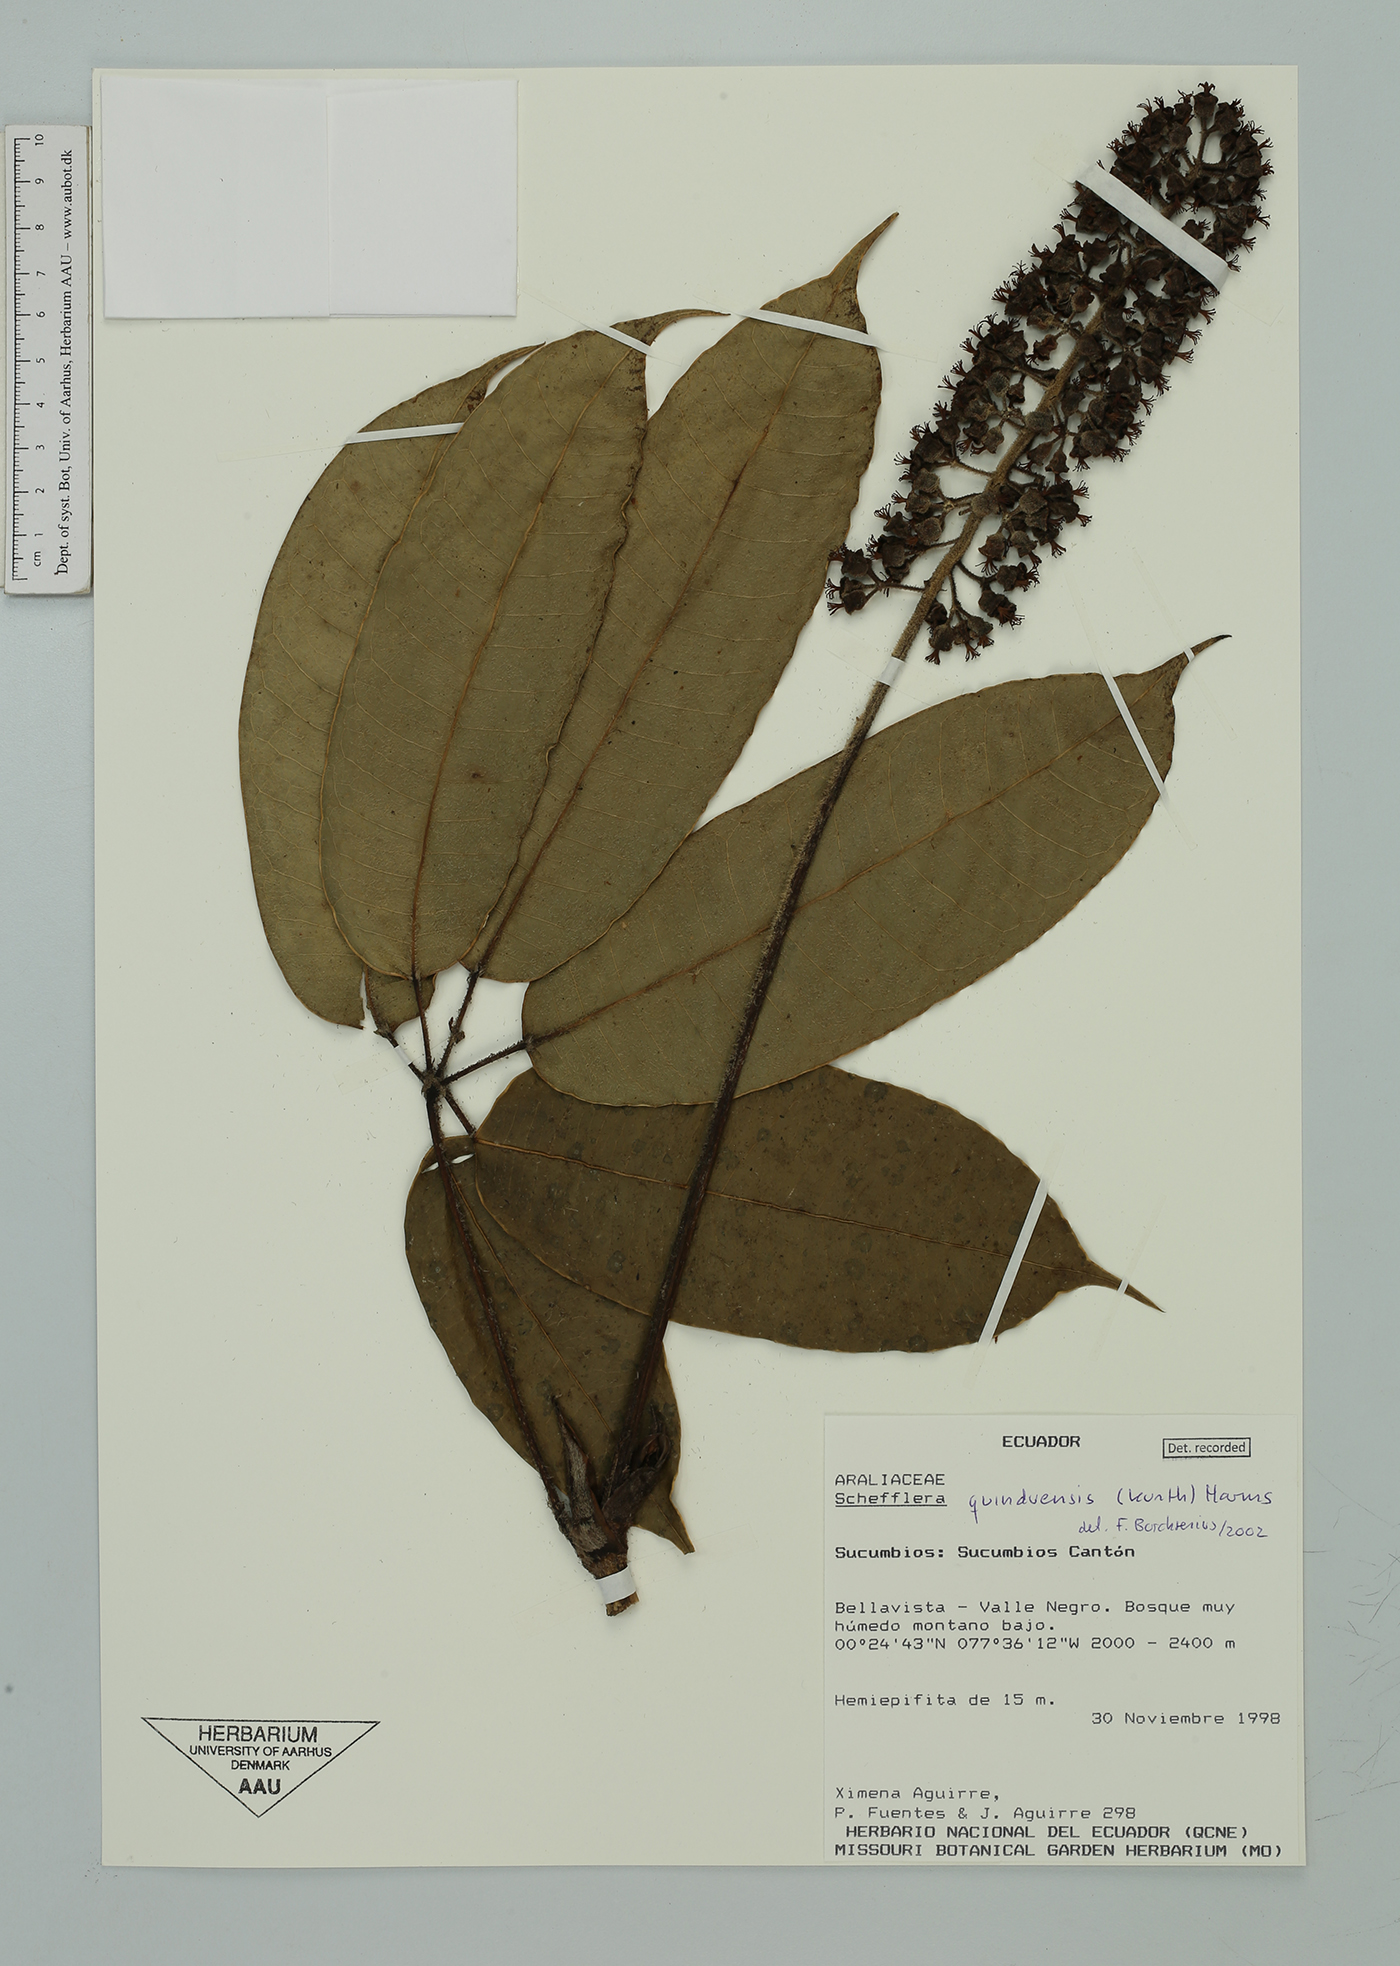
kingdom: Plantae
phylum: Tracheophyta
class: Magnoliopsida
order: Apiales
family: Araliaceae
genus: Sciodaphyllum
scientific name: Sciodaphyllum
